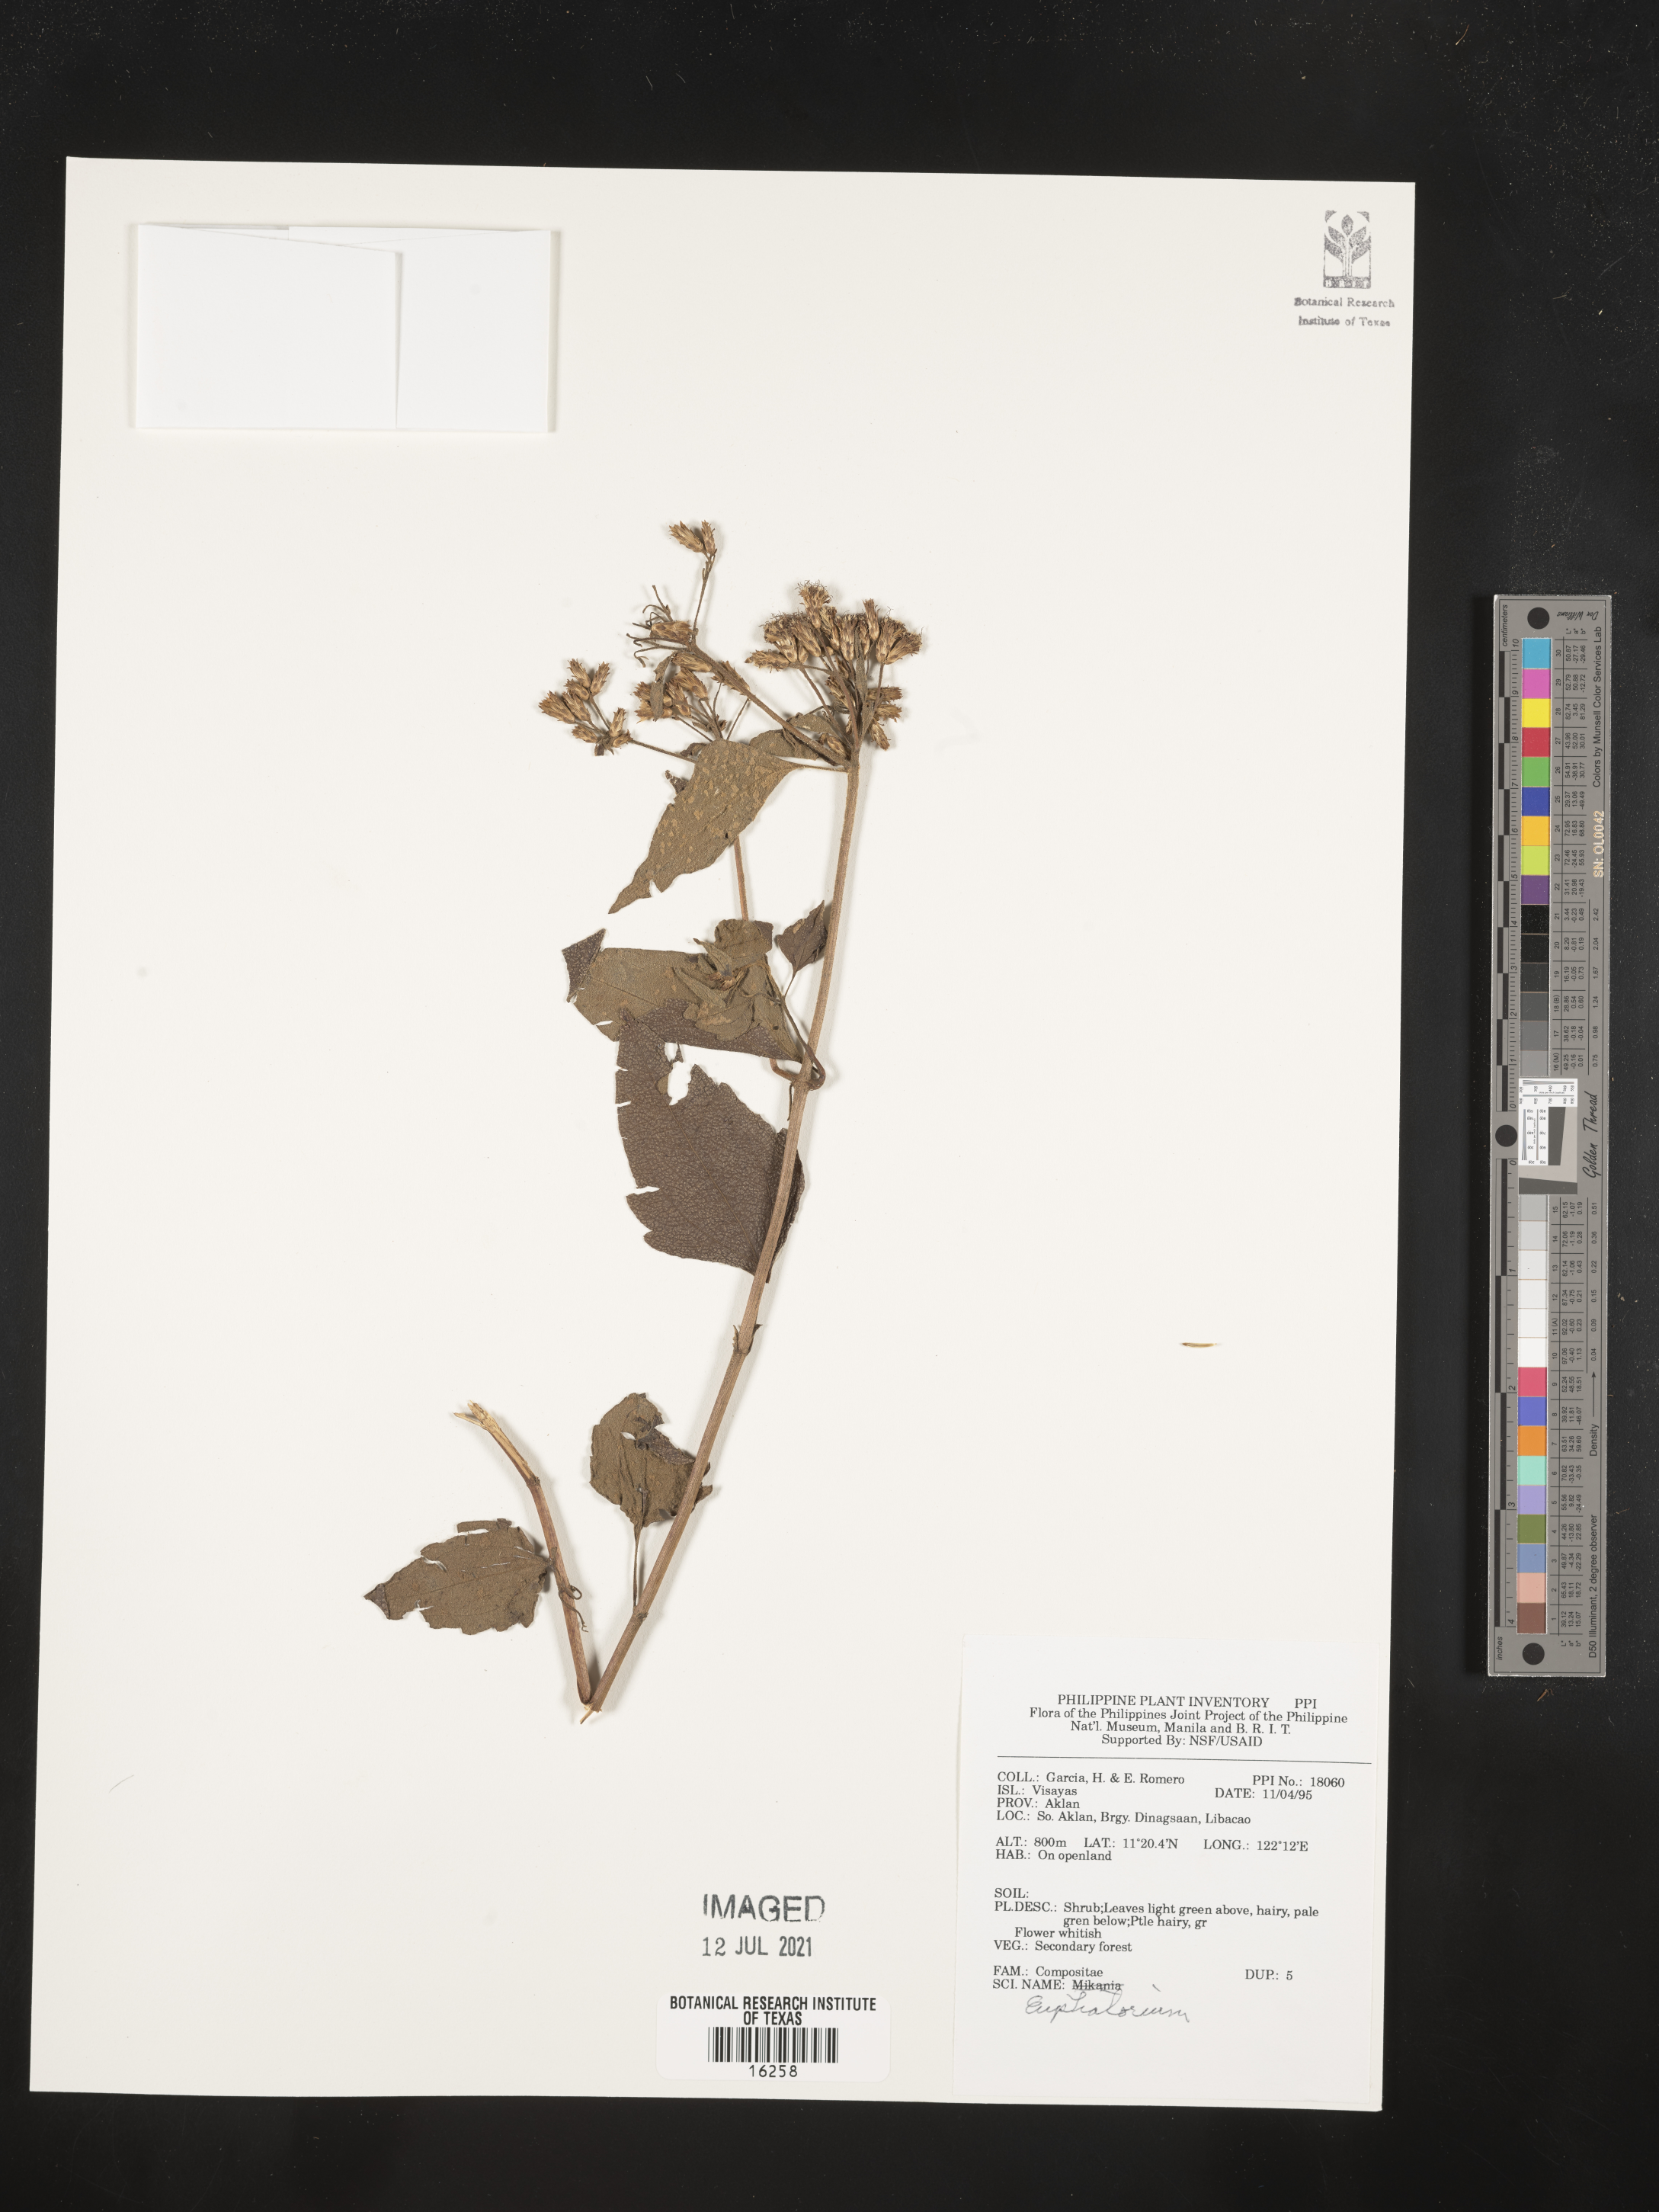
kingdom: Plantae
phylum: Tracheophyta
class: Magnoliopsida
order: Asterales
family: Asteraceae
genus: Eupatorium
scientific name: Eupatorium
